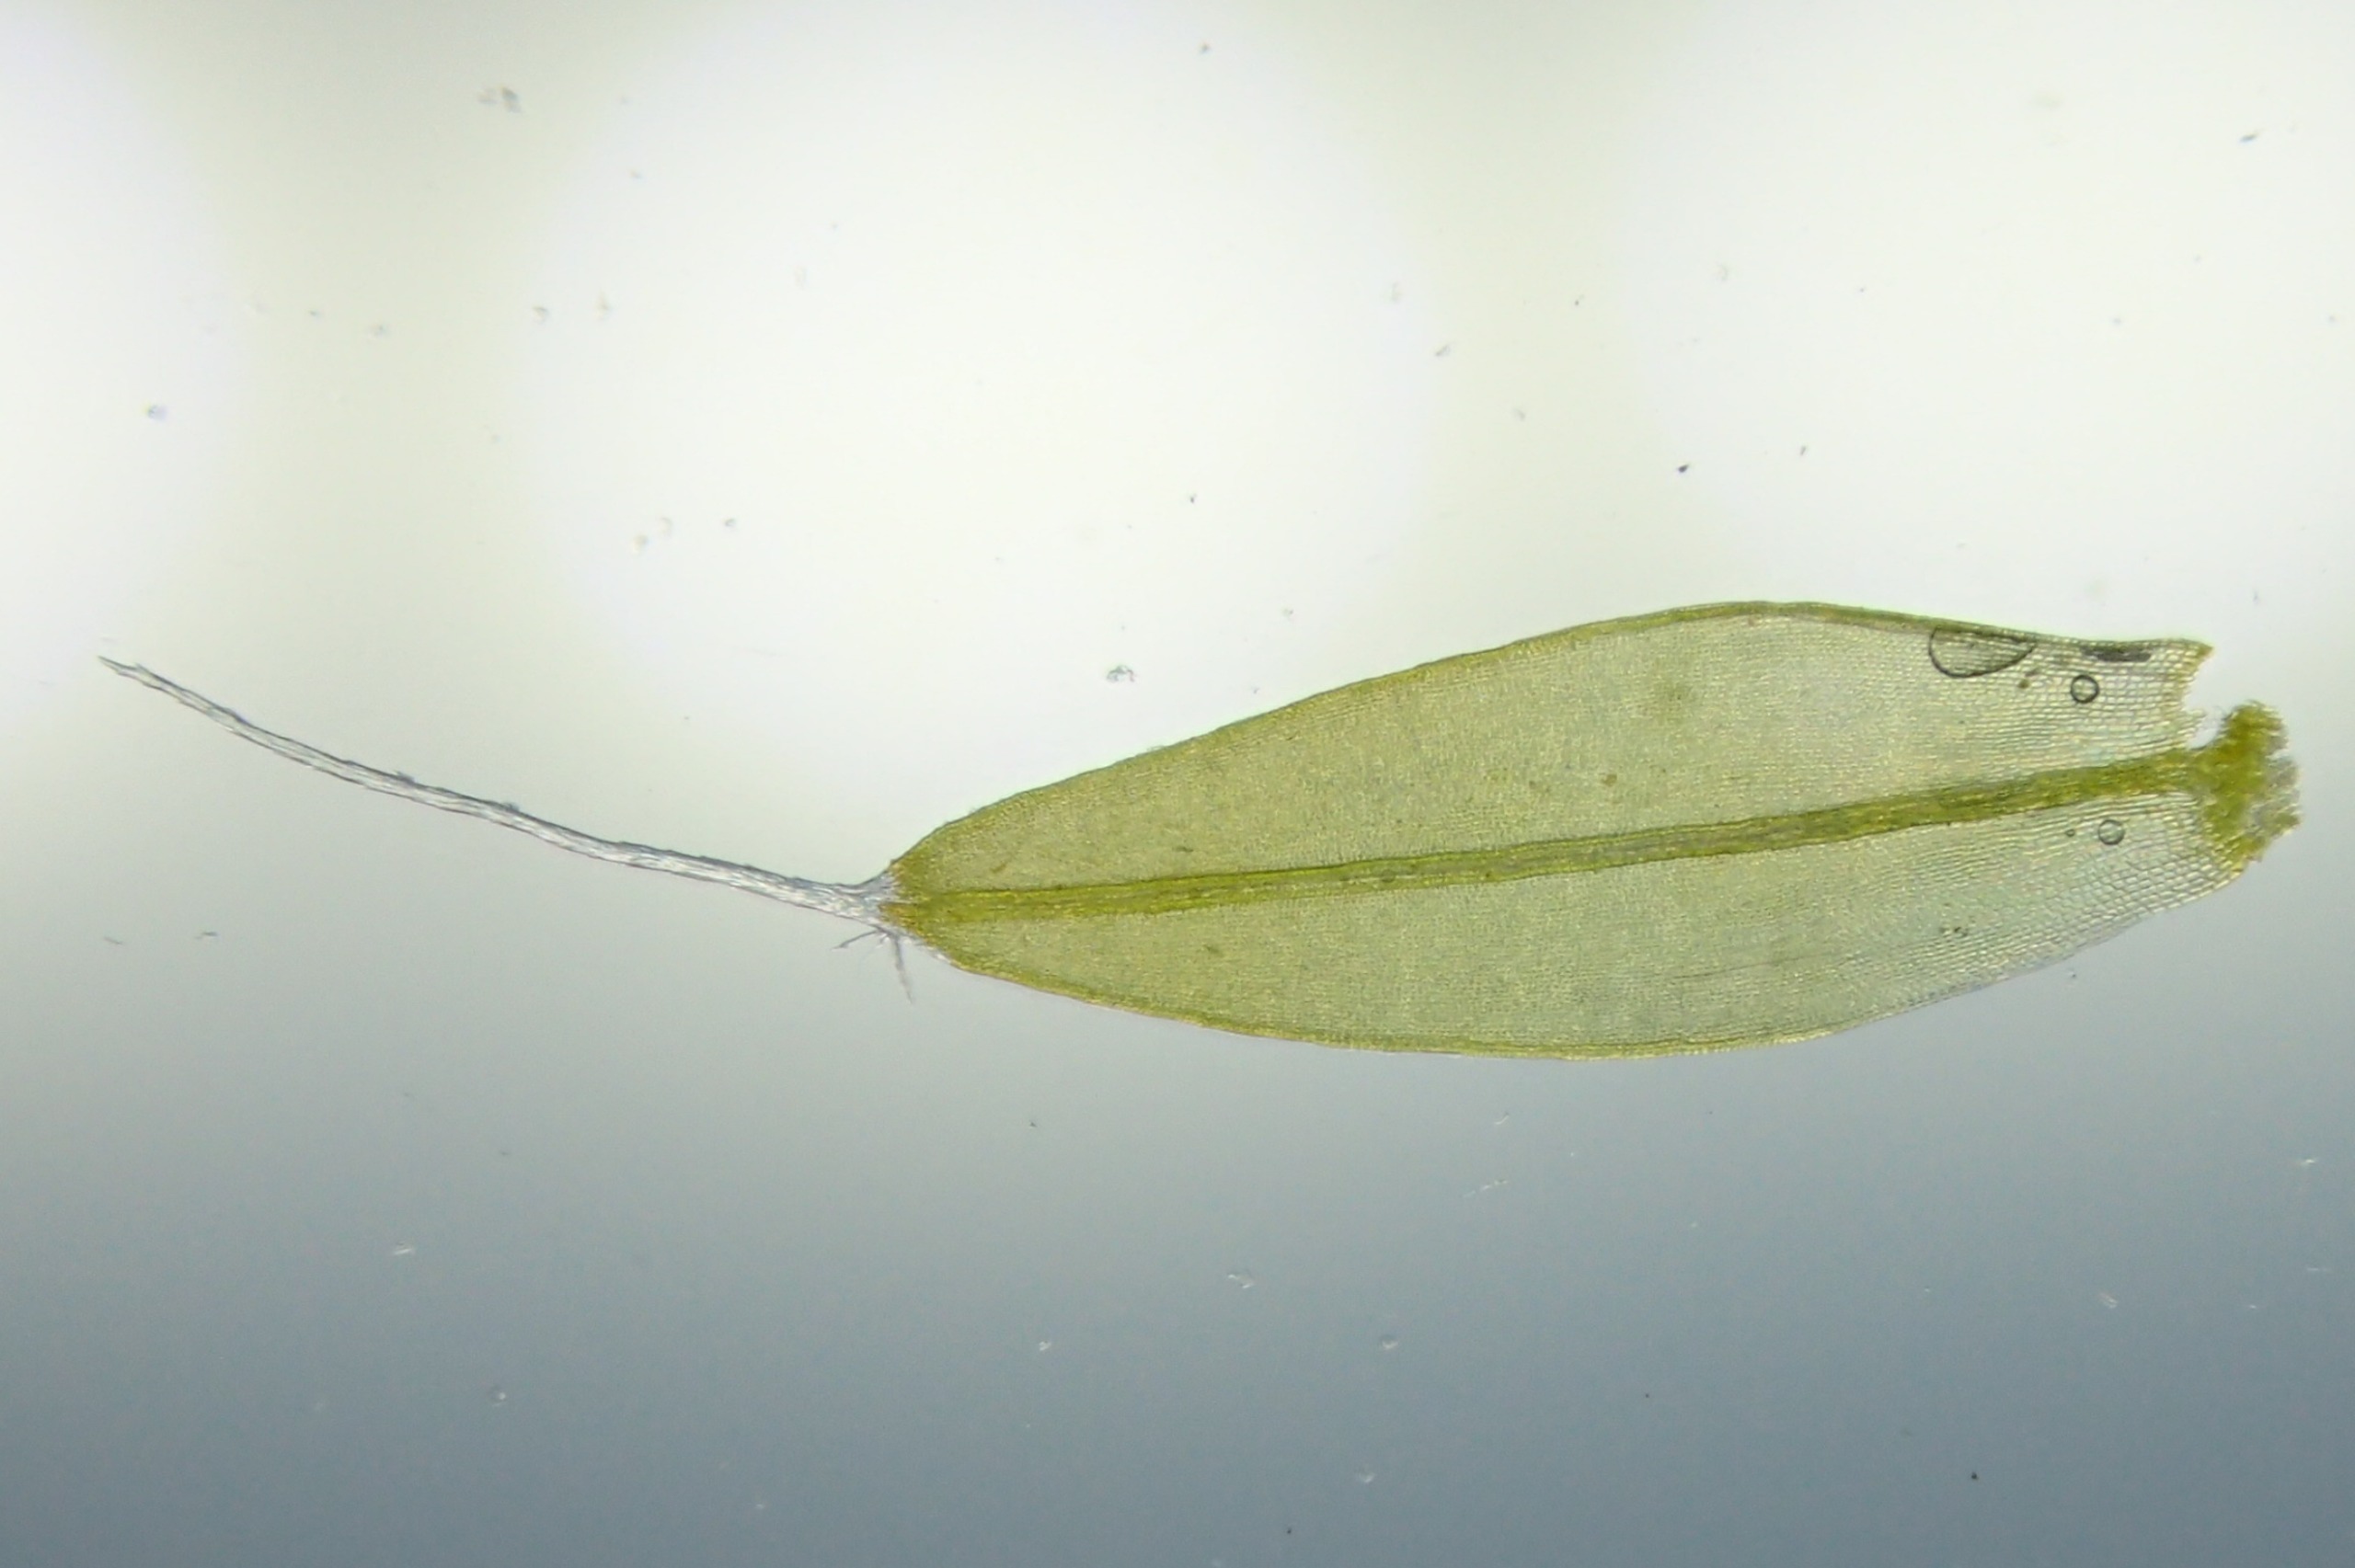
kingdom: Plantae
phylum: Bryophyta
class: Bryopsida
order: Pottiales
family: Pottiaceae
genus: Tortula
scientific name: Tortula muralis
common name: Mur-snotand
